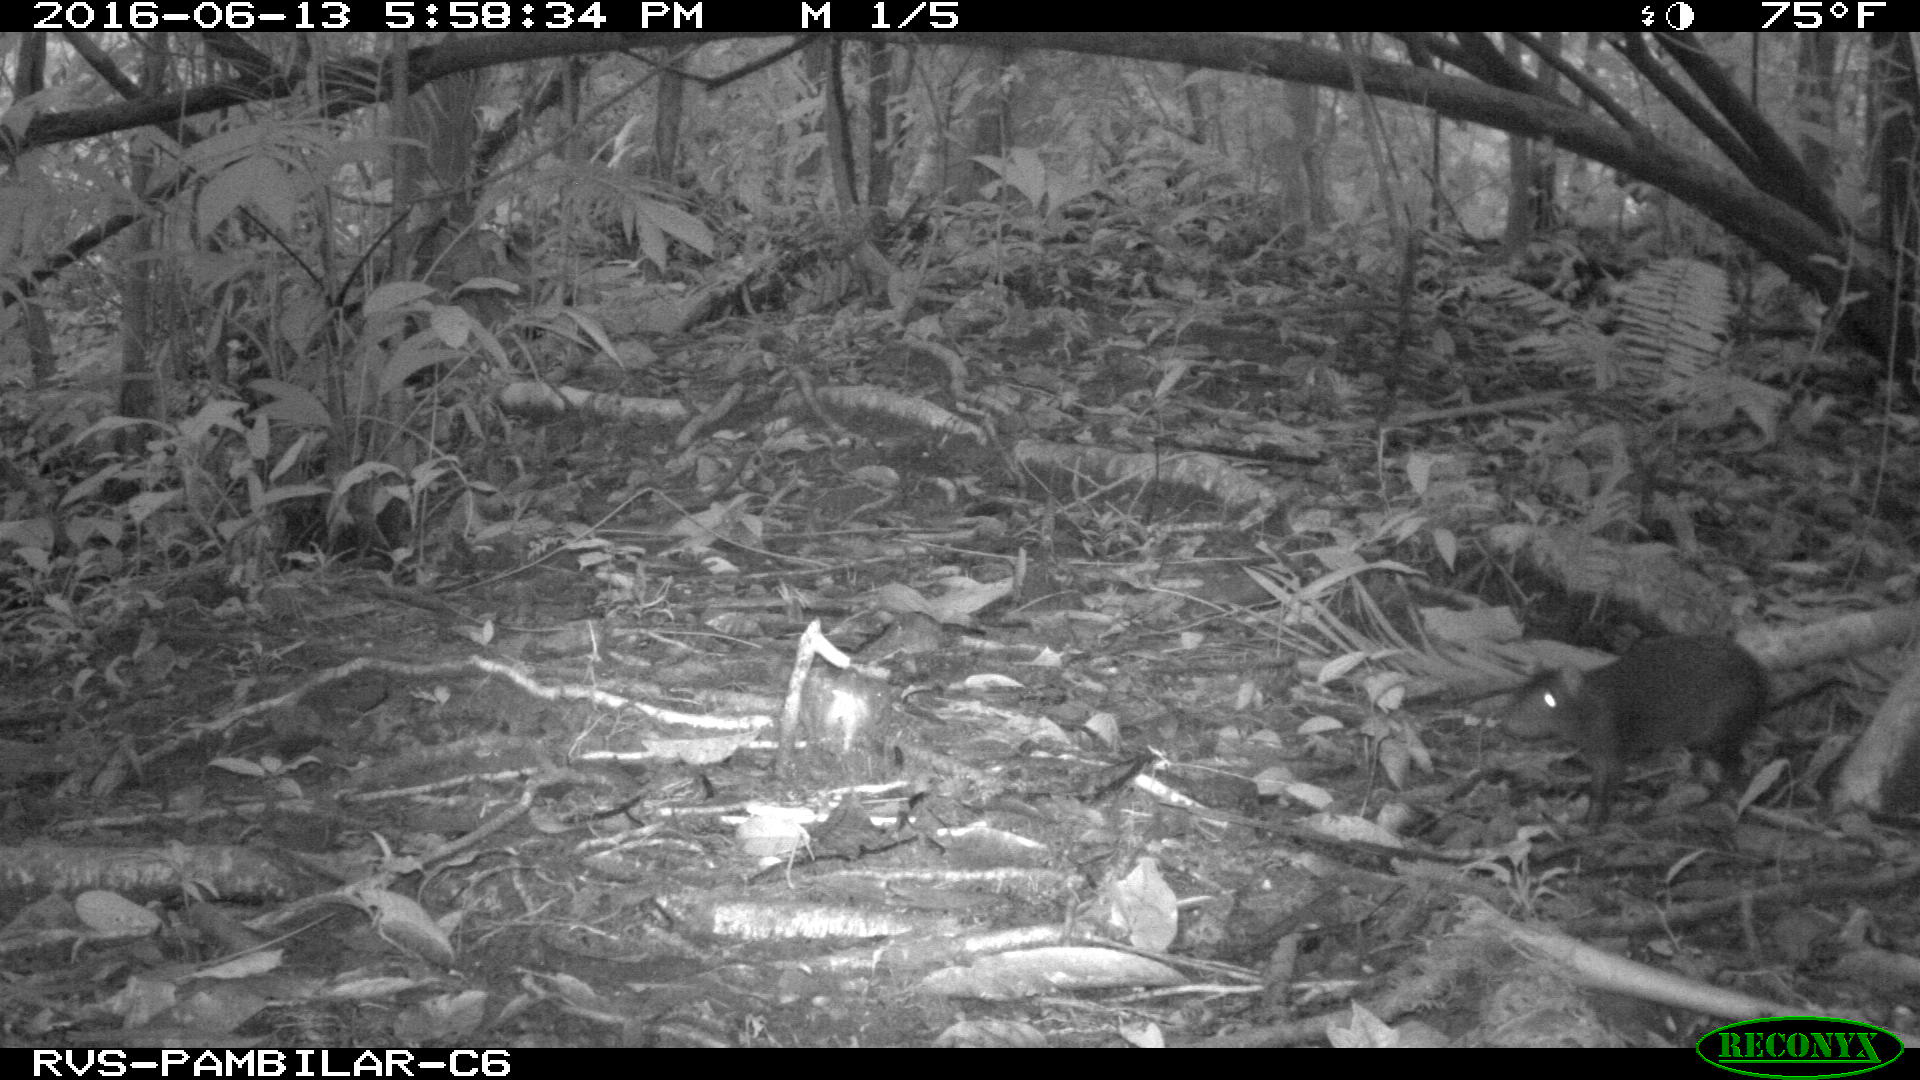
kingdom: Animalia
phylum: Chordata
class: Mammalia
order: Rodentia
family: Dasyproctidae
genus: Dasyprocta
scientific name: Dasyprocta punctata
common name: Central american agouti
